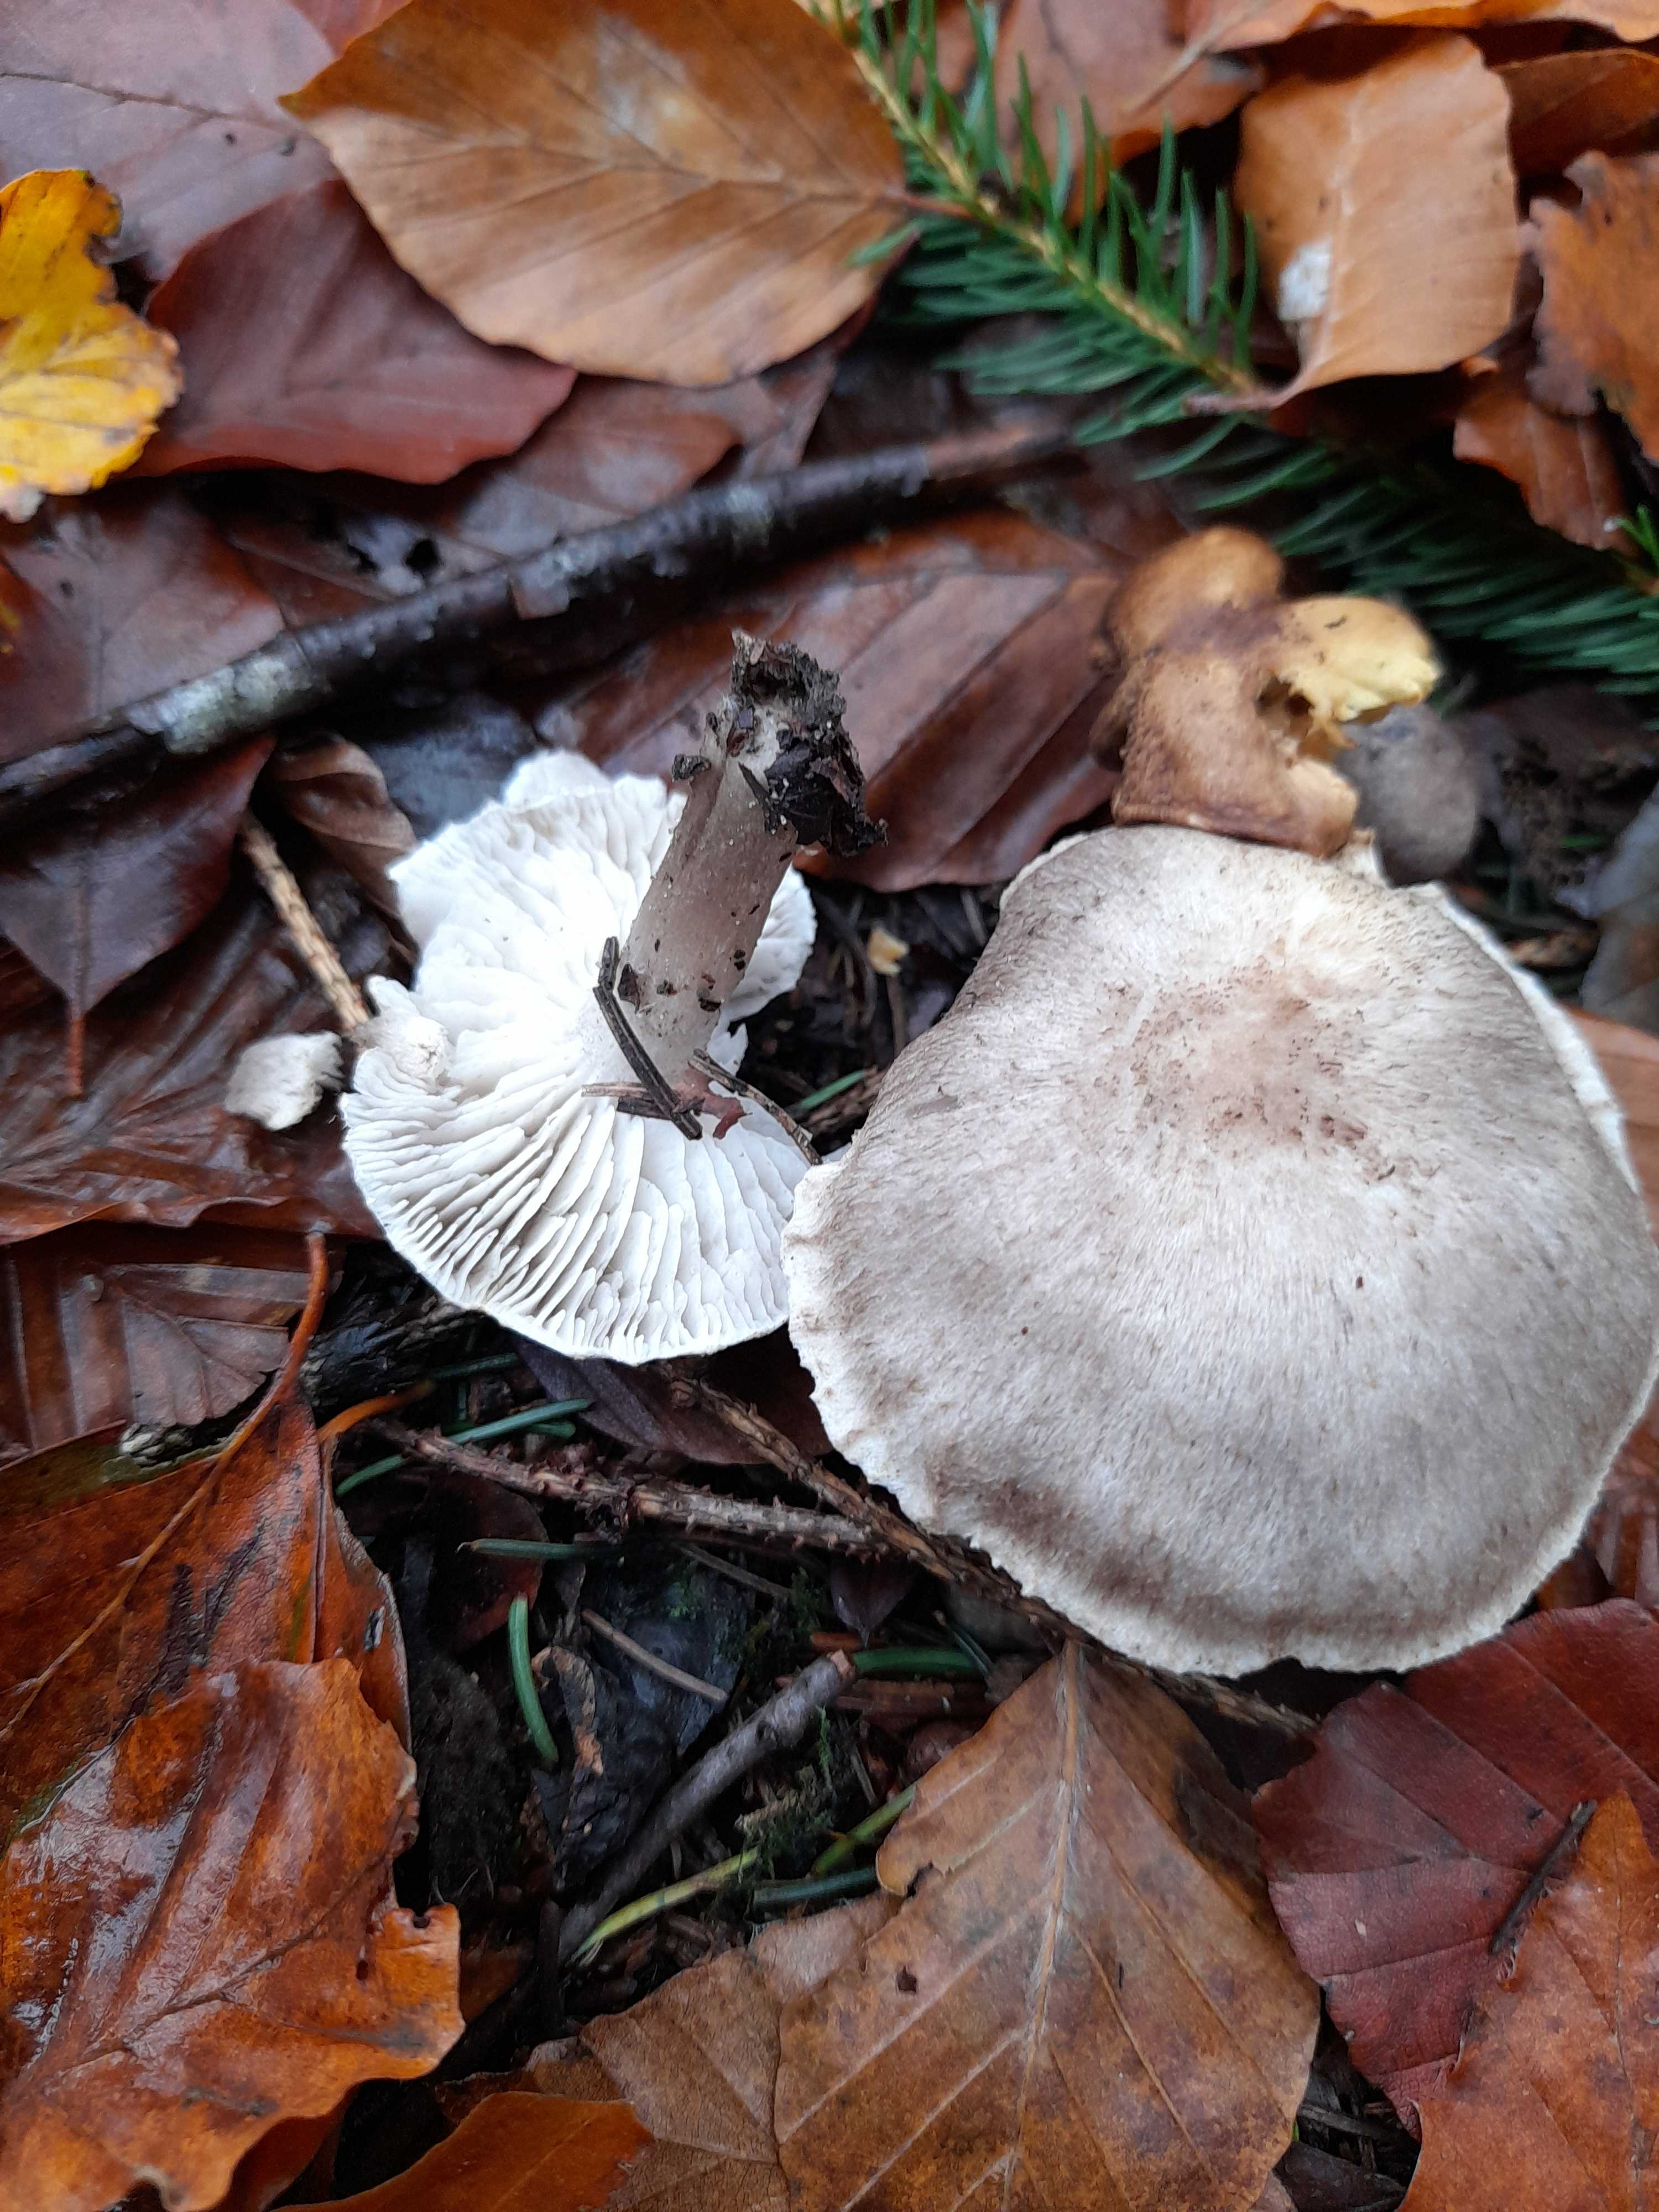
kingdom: Fungi
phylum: Basidiomycota
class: Agaricomycetes
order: Agaricales
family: Tricholomataceae
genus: Tricholoma
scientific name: Tricholoma sciodes
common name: stribet ridderhat
